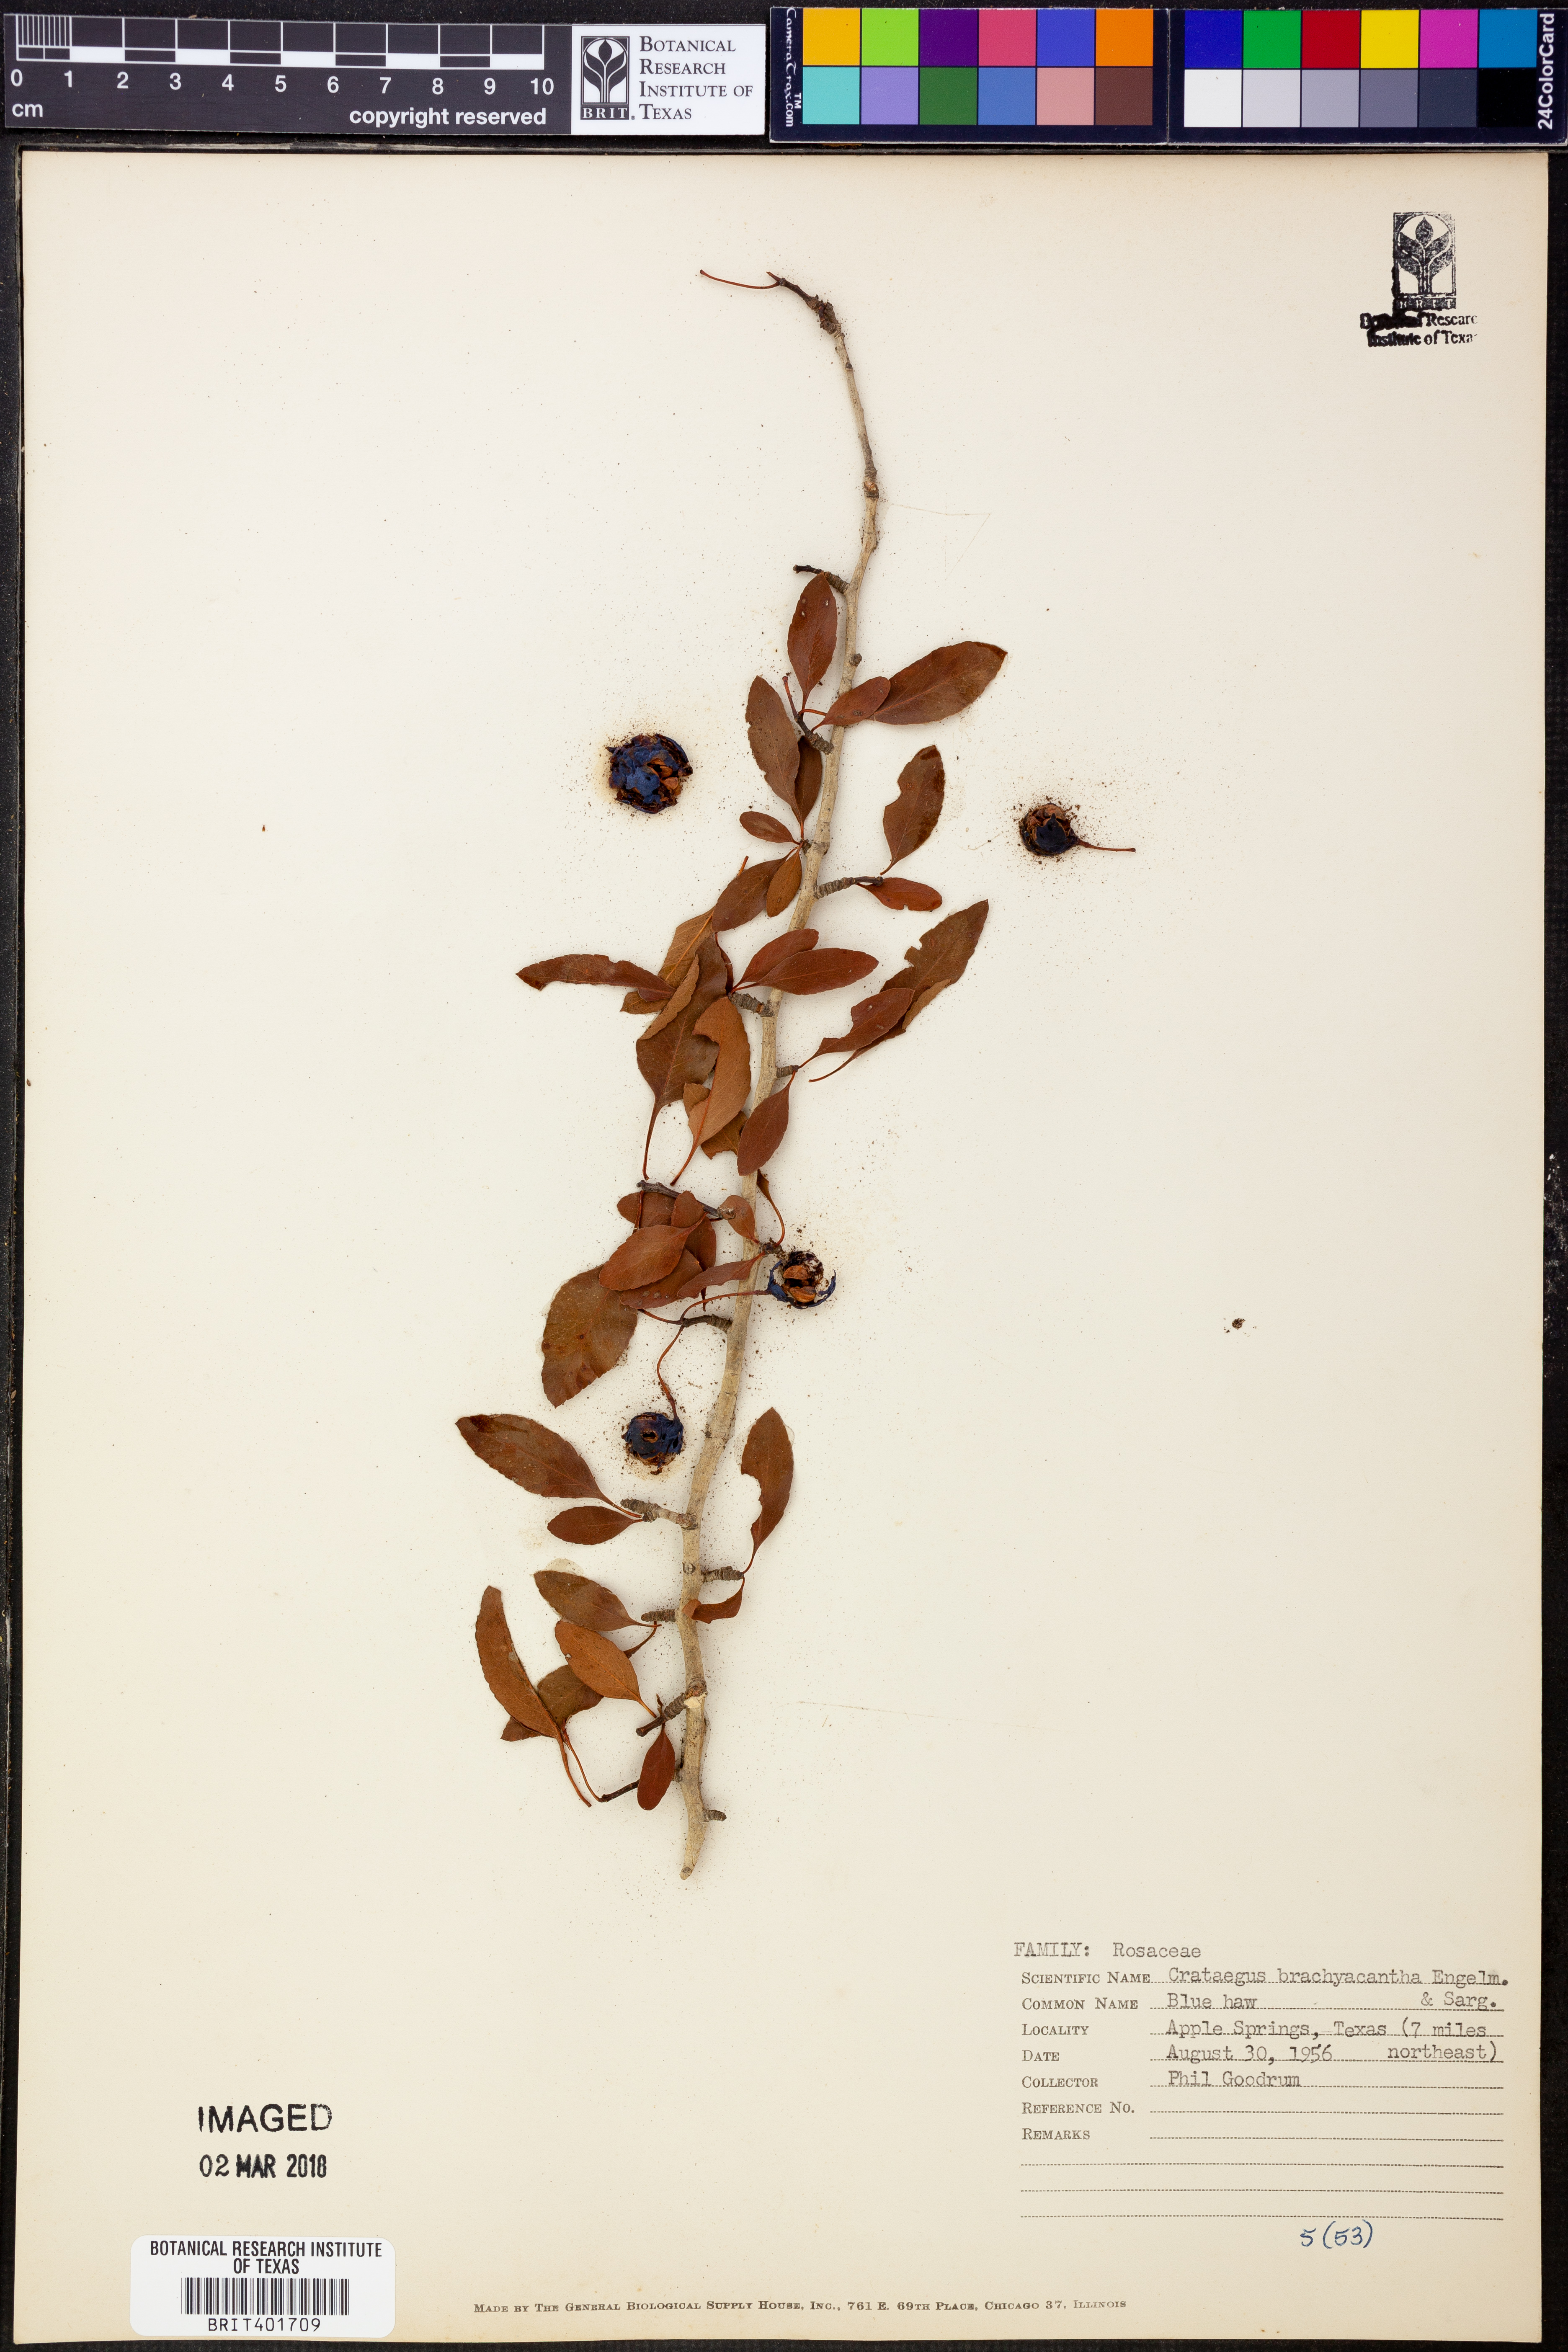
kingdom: Plantae
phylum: Tracheophyta
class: Magnoliopsida
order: Rosales
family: Rosaceae
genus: Crataegus
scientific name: Crataegus brachyacantha
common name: Blueberry-hawthorn
